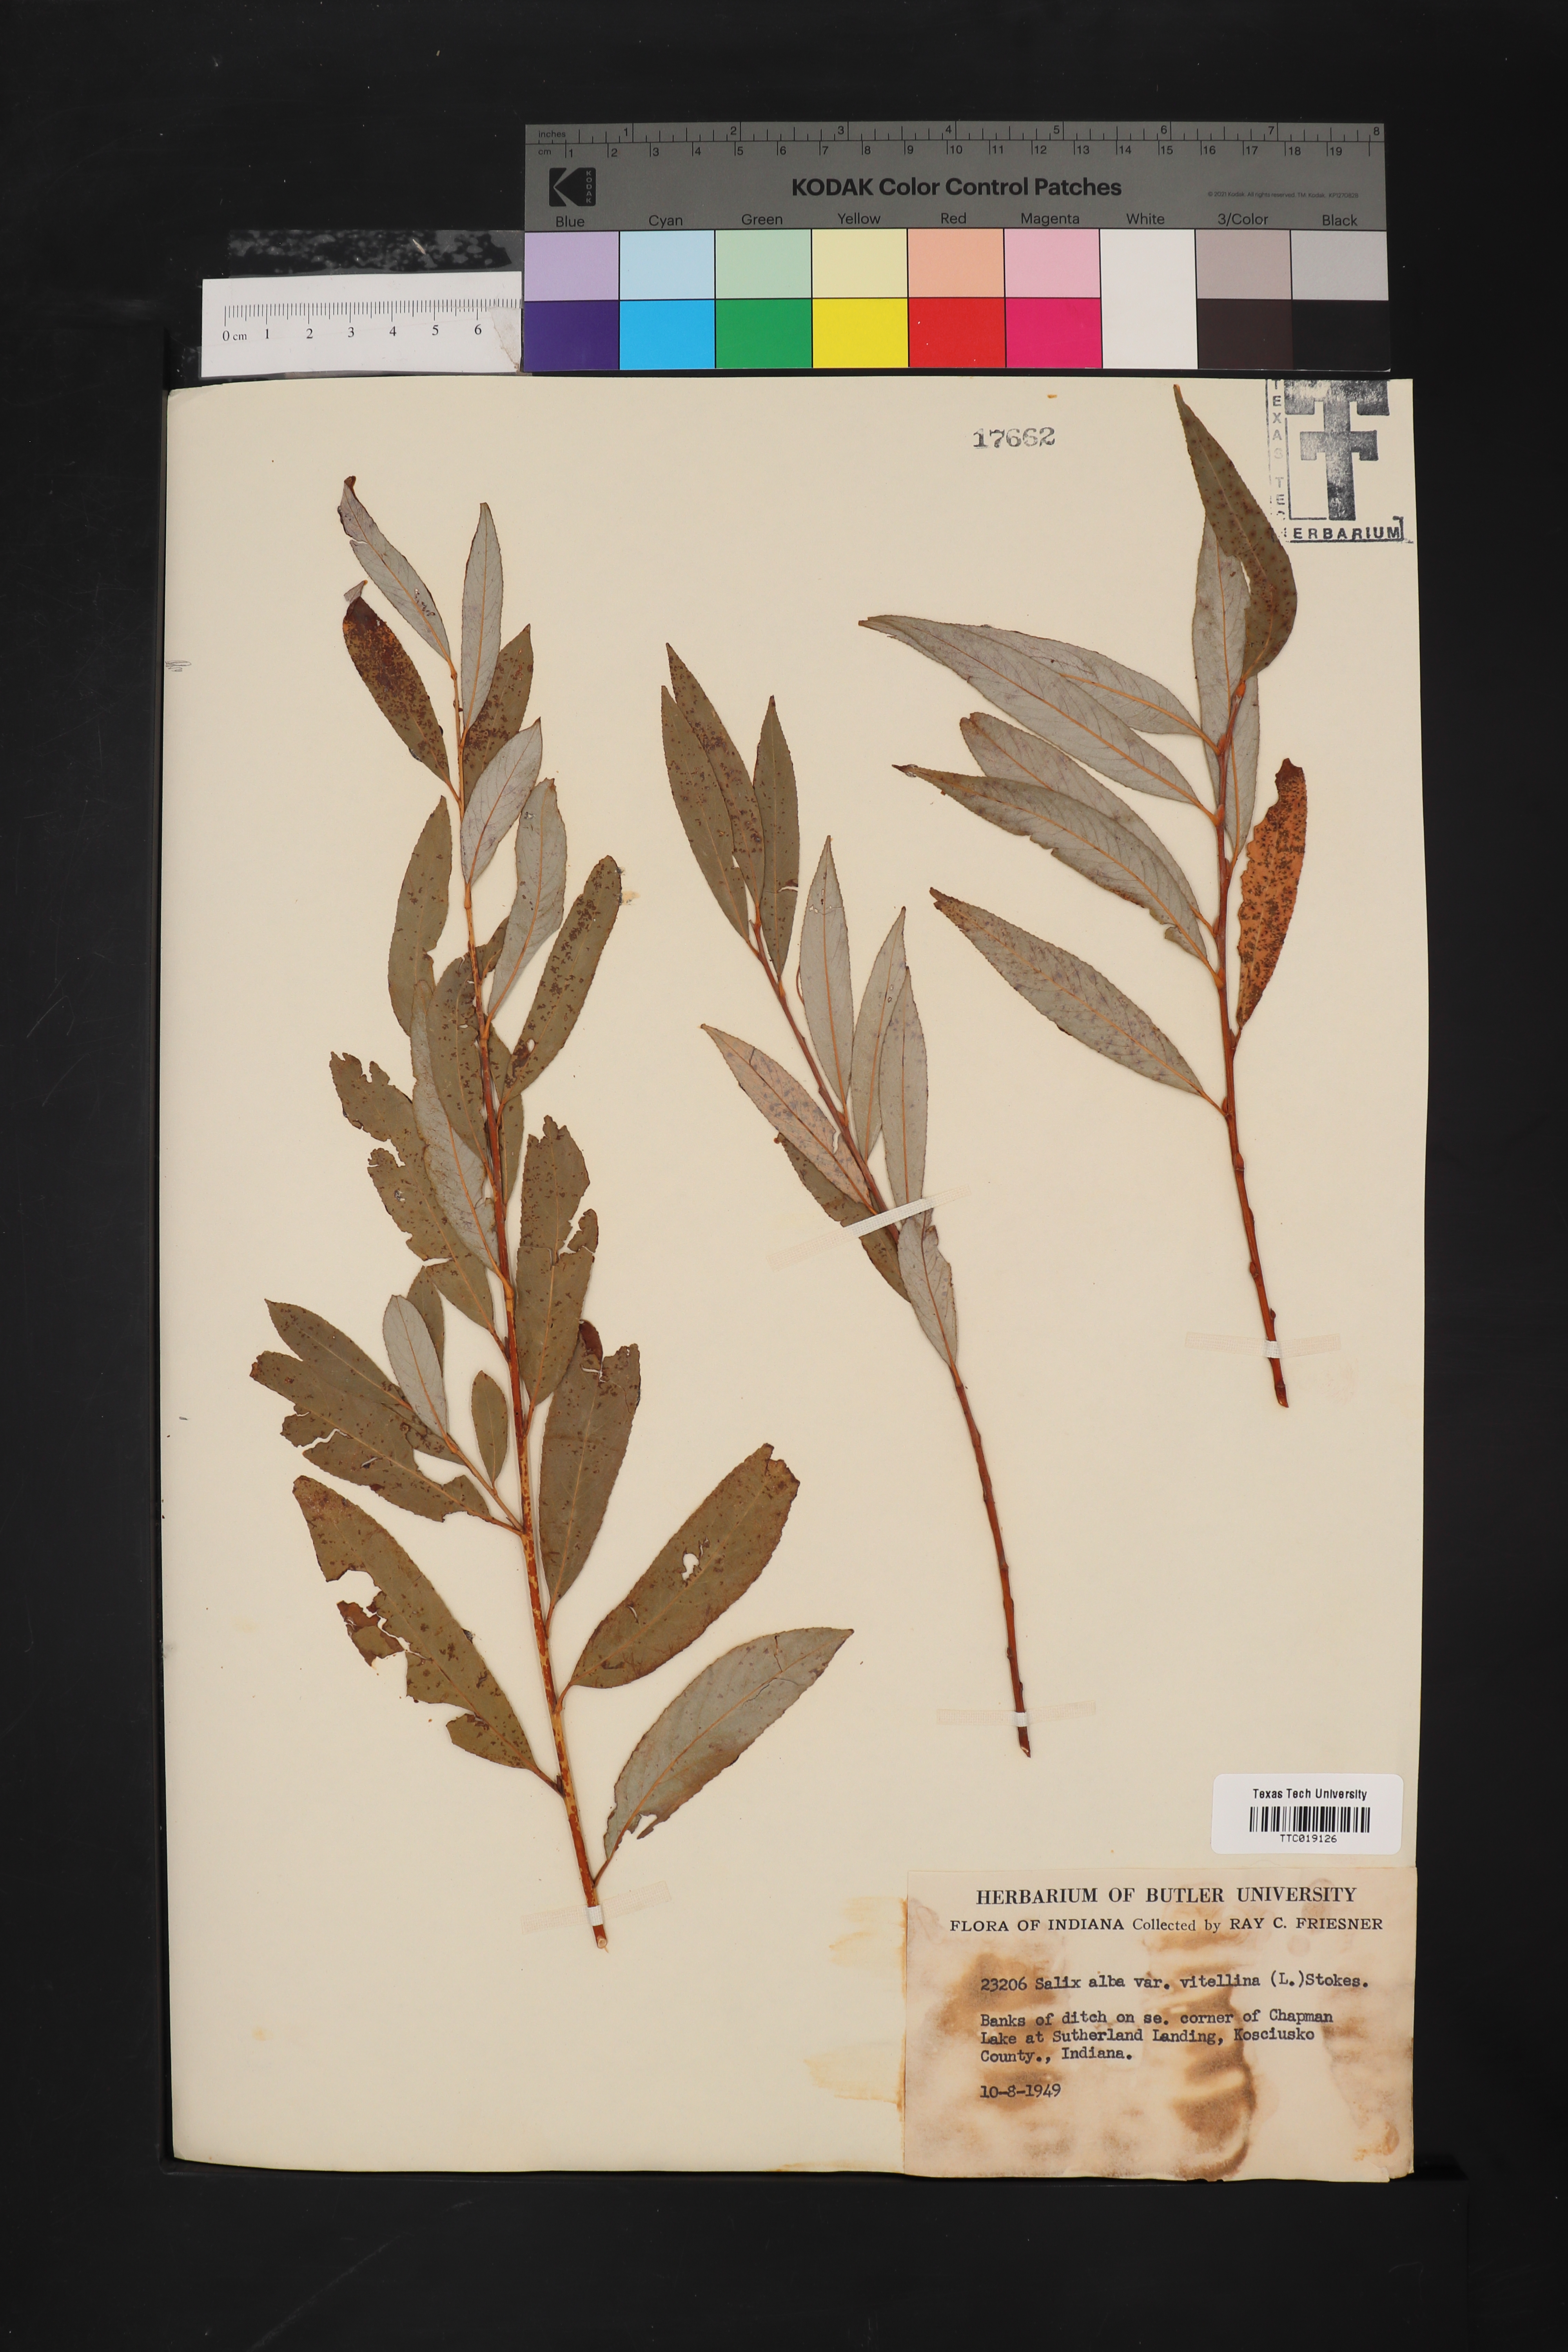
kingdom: Plantae
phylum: Tracheophyta
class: Magnoliopsida
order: Malpighiales
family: Salicaceae
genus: Salix
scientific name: Salix alba
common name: White willow
